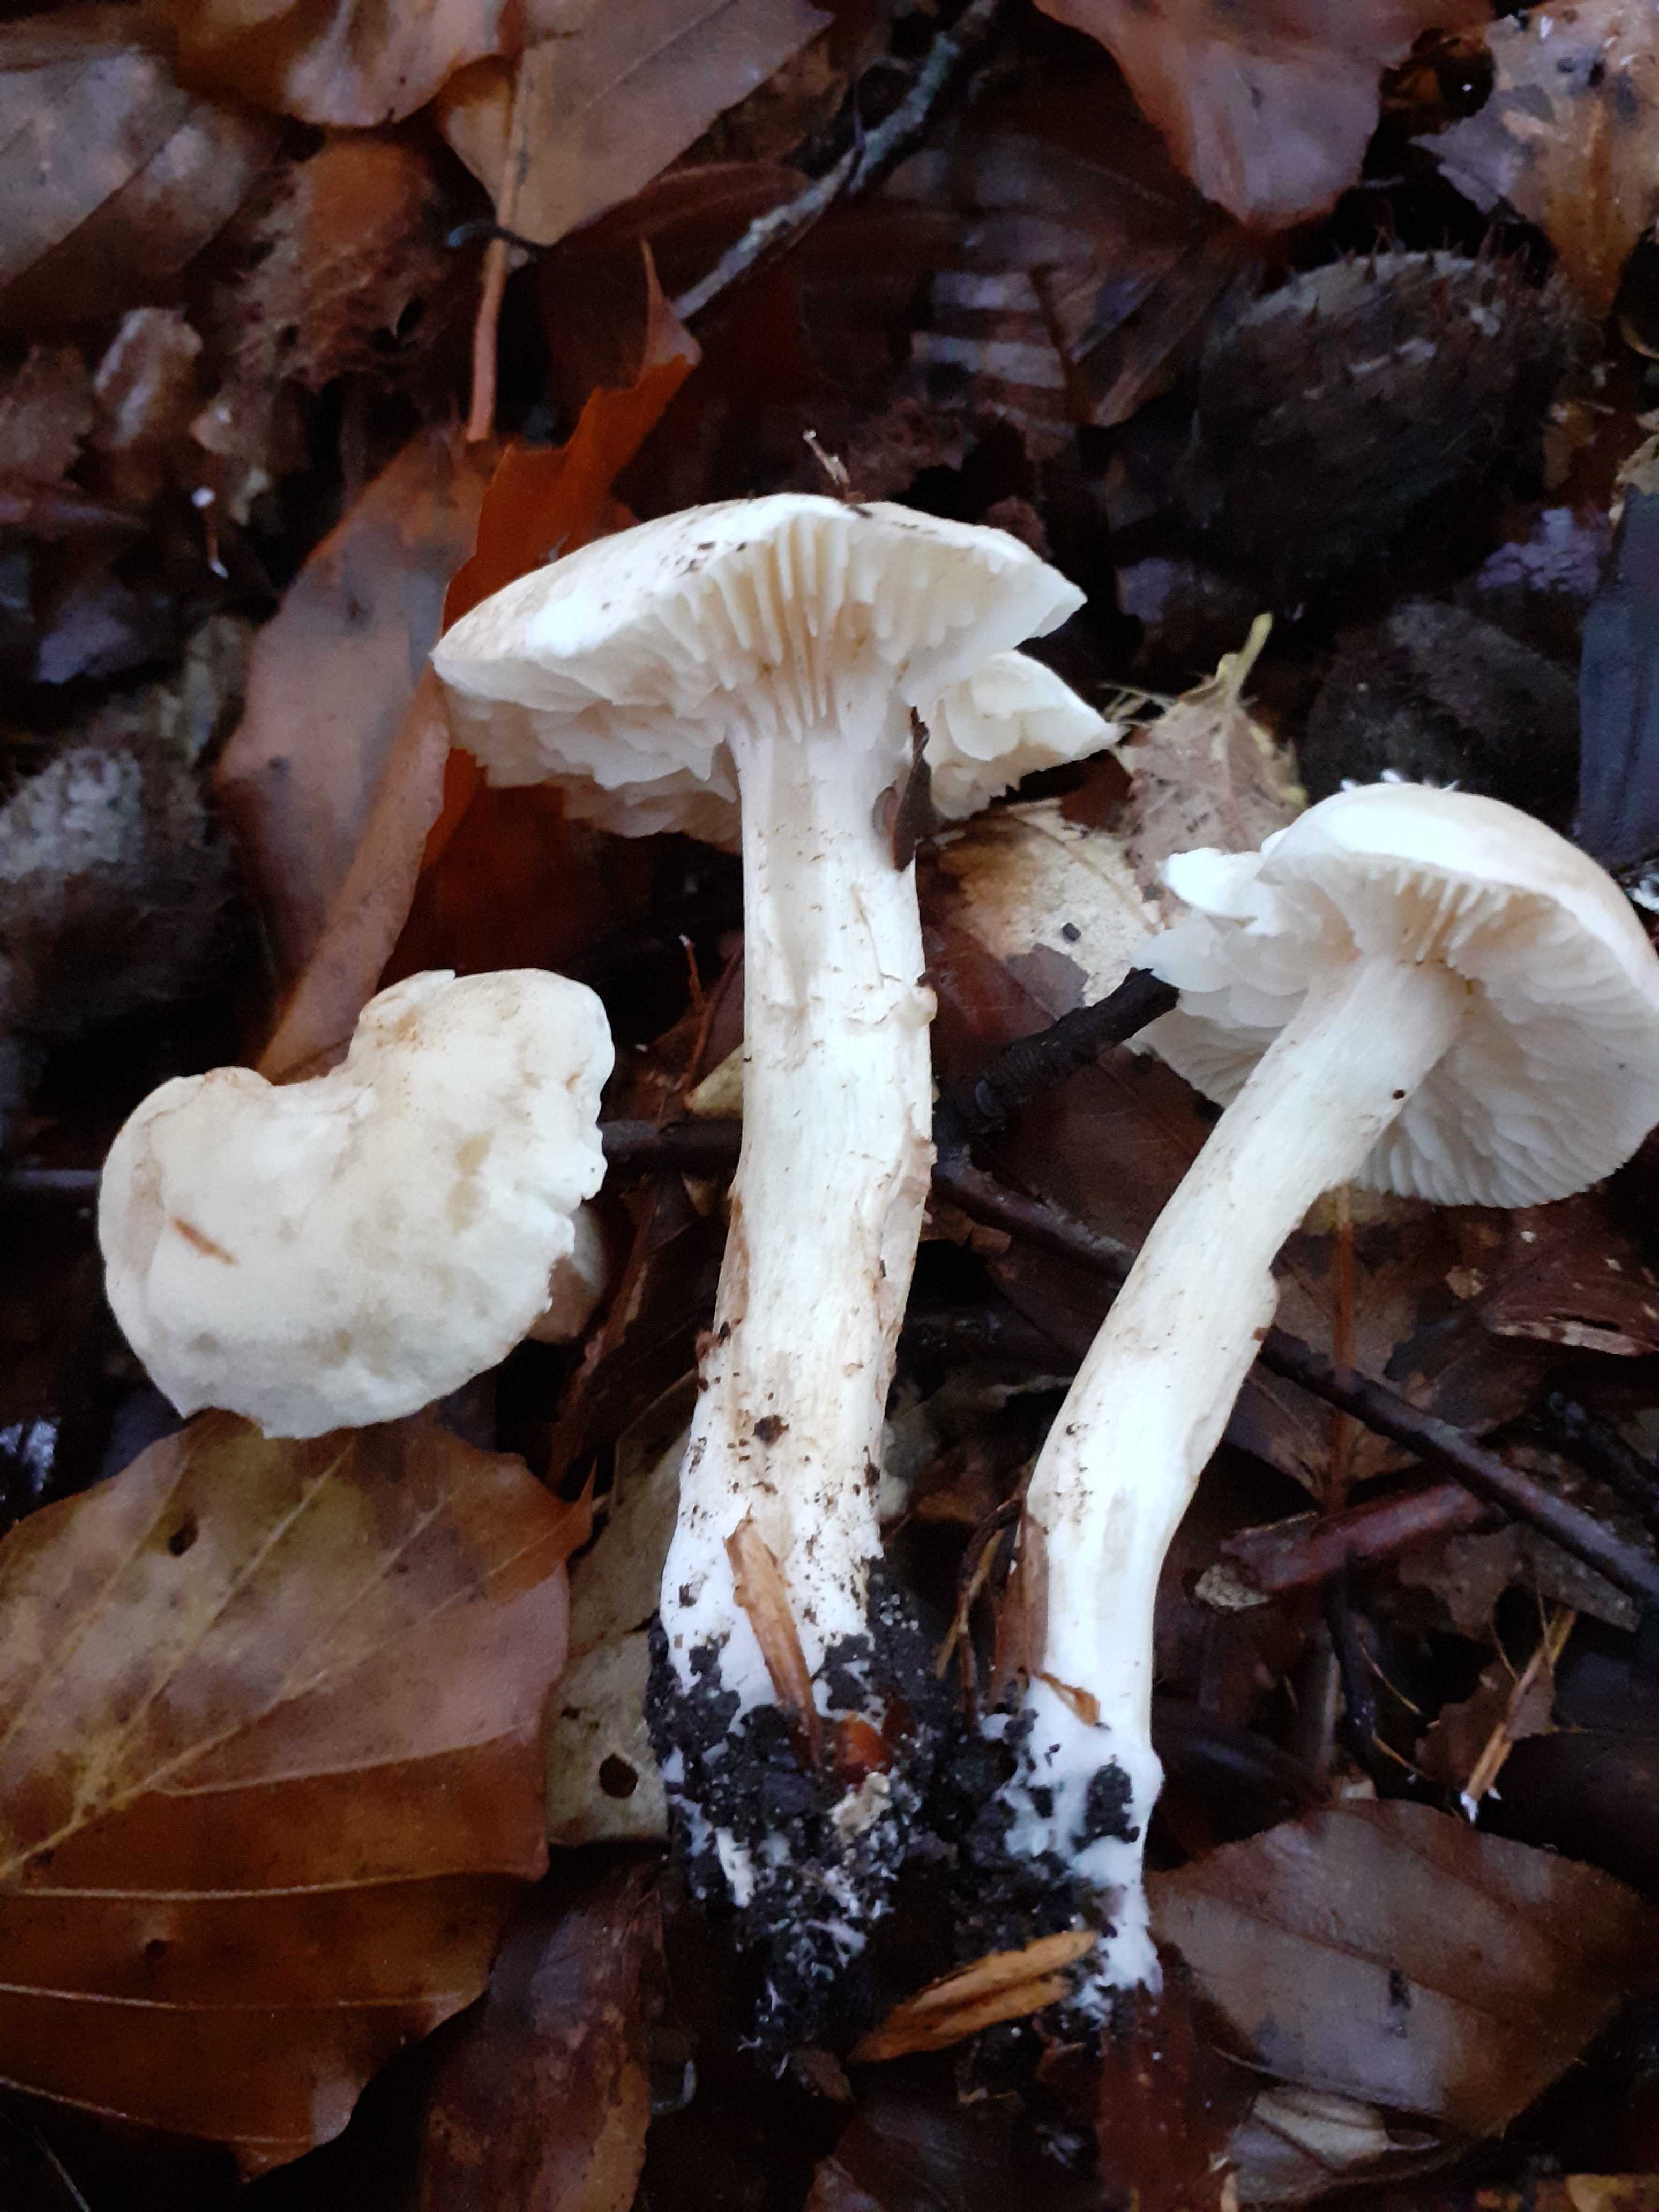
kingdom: Fungi
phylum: Basidiomycota
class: Agaricomycetes
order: Agaricales
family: Tricholomataceae
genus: Tricholoma
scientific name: Tricholoma lascivum
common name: stinkende ridderhat
